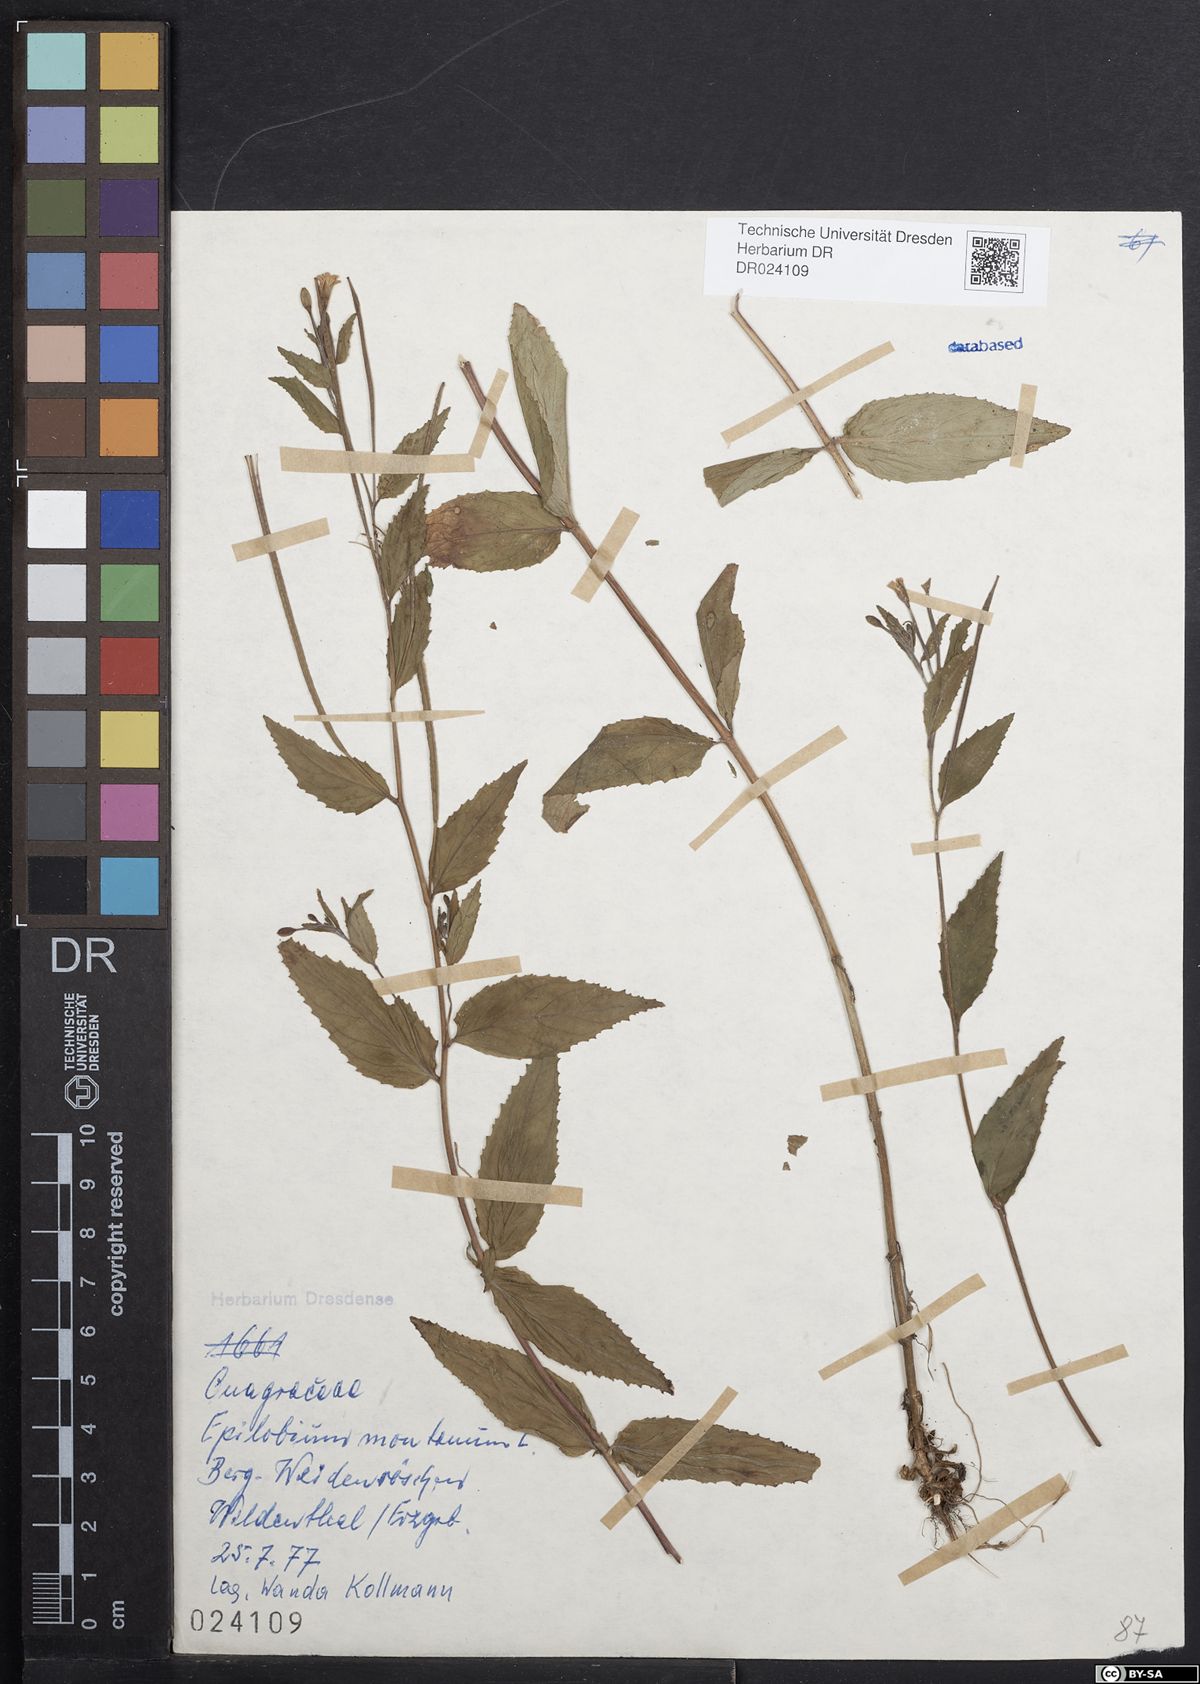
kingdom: Plantae
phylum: Tracheophyta
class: Magnoliopsida
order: Myrtales
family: Onagraceae
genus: Epilobium
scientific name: Epilobium montanum
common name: Broad-leaved willowherb
